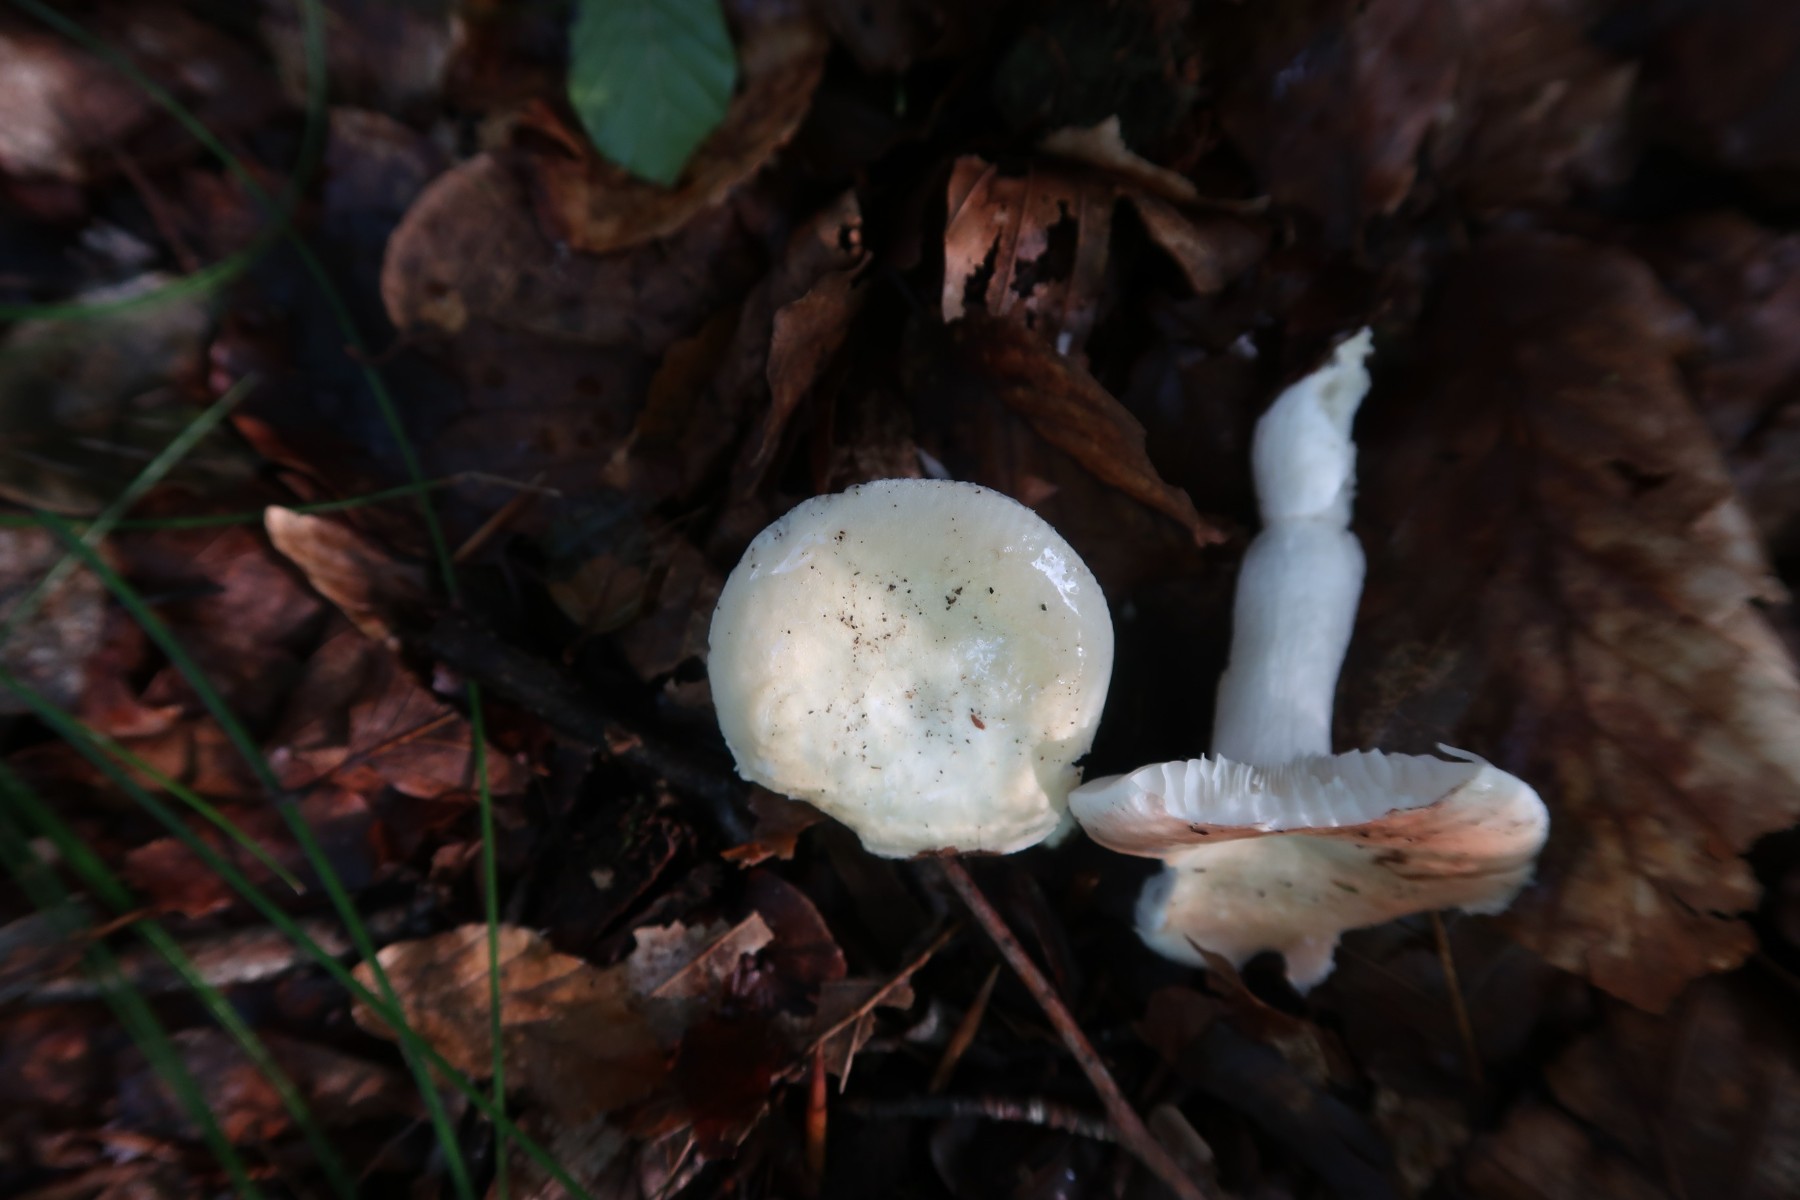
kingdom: Fungi
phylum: Basidiomycota
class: Agaricomycetes
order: Russulales
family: Russulaceae
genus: Russula
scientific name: Russula roseoaurantia
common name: kornet skørhat
